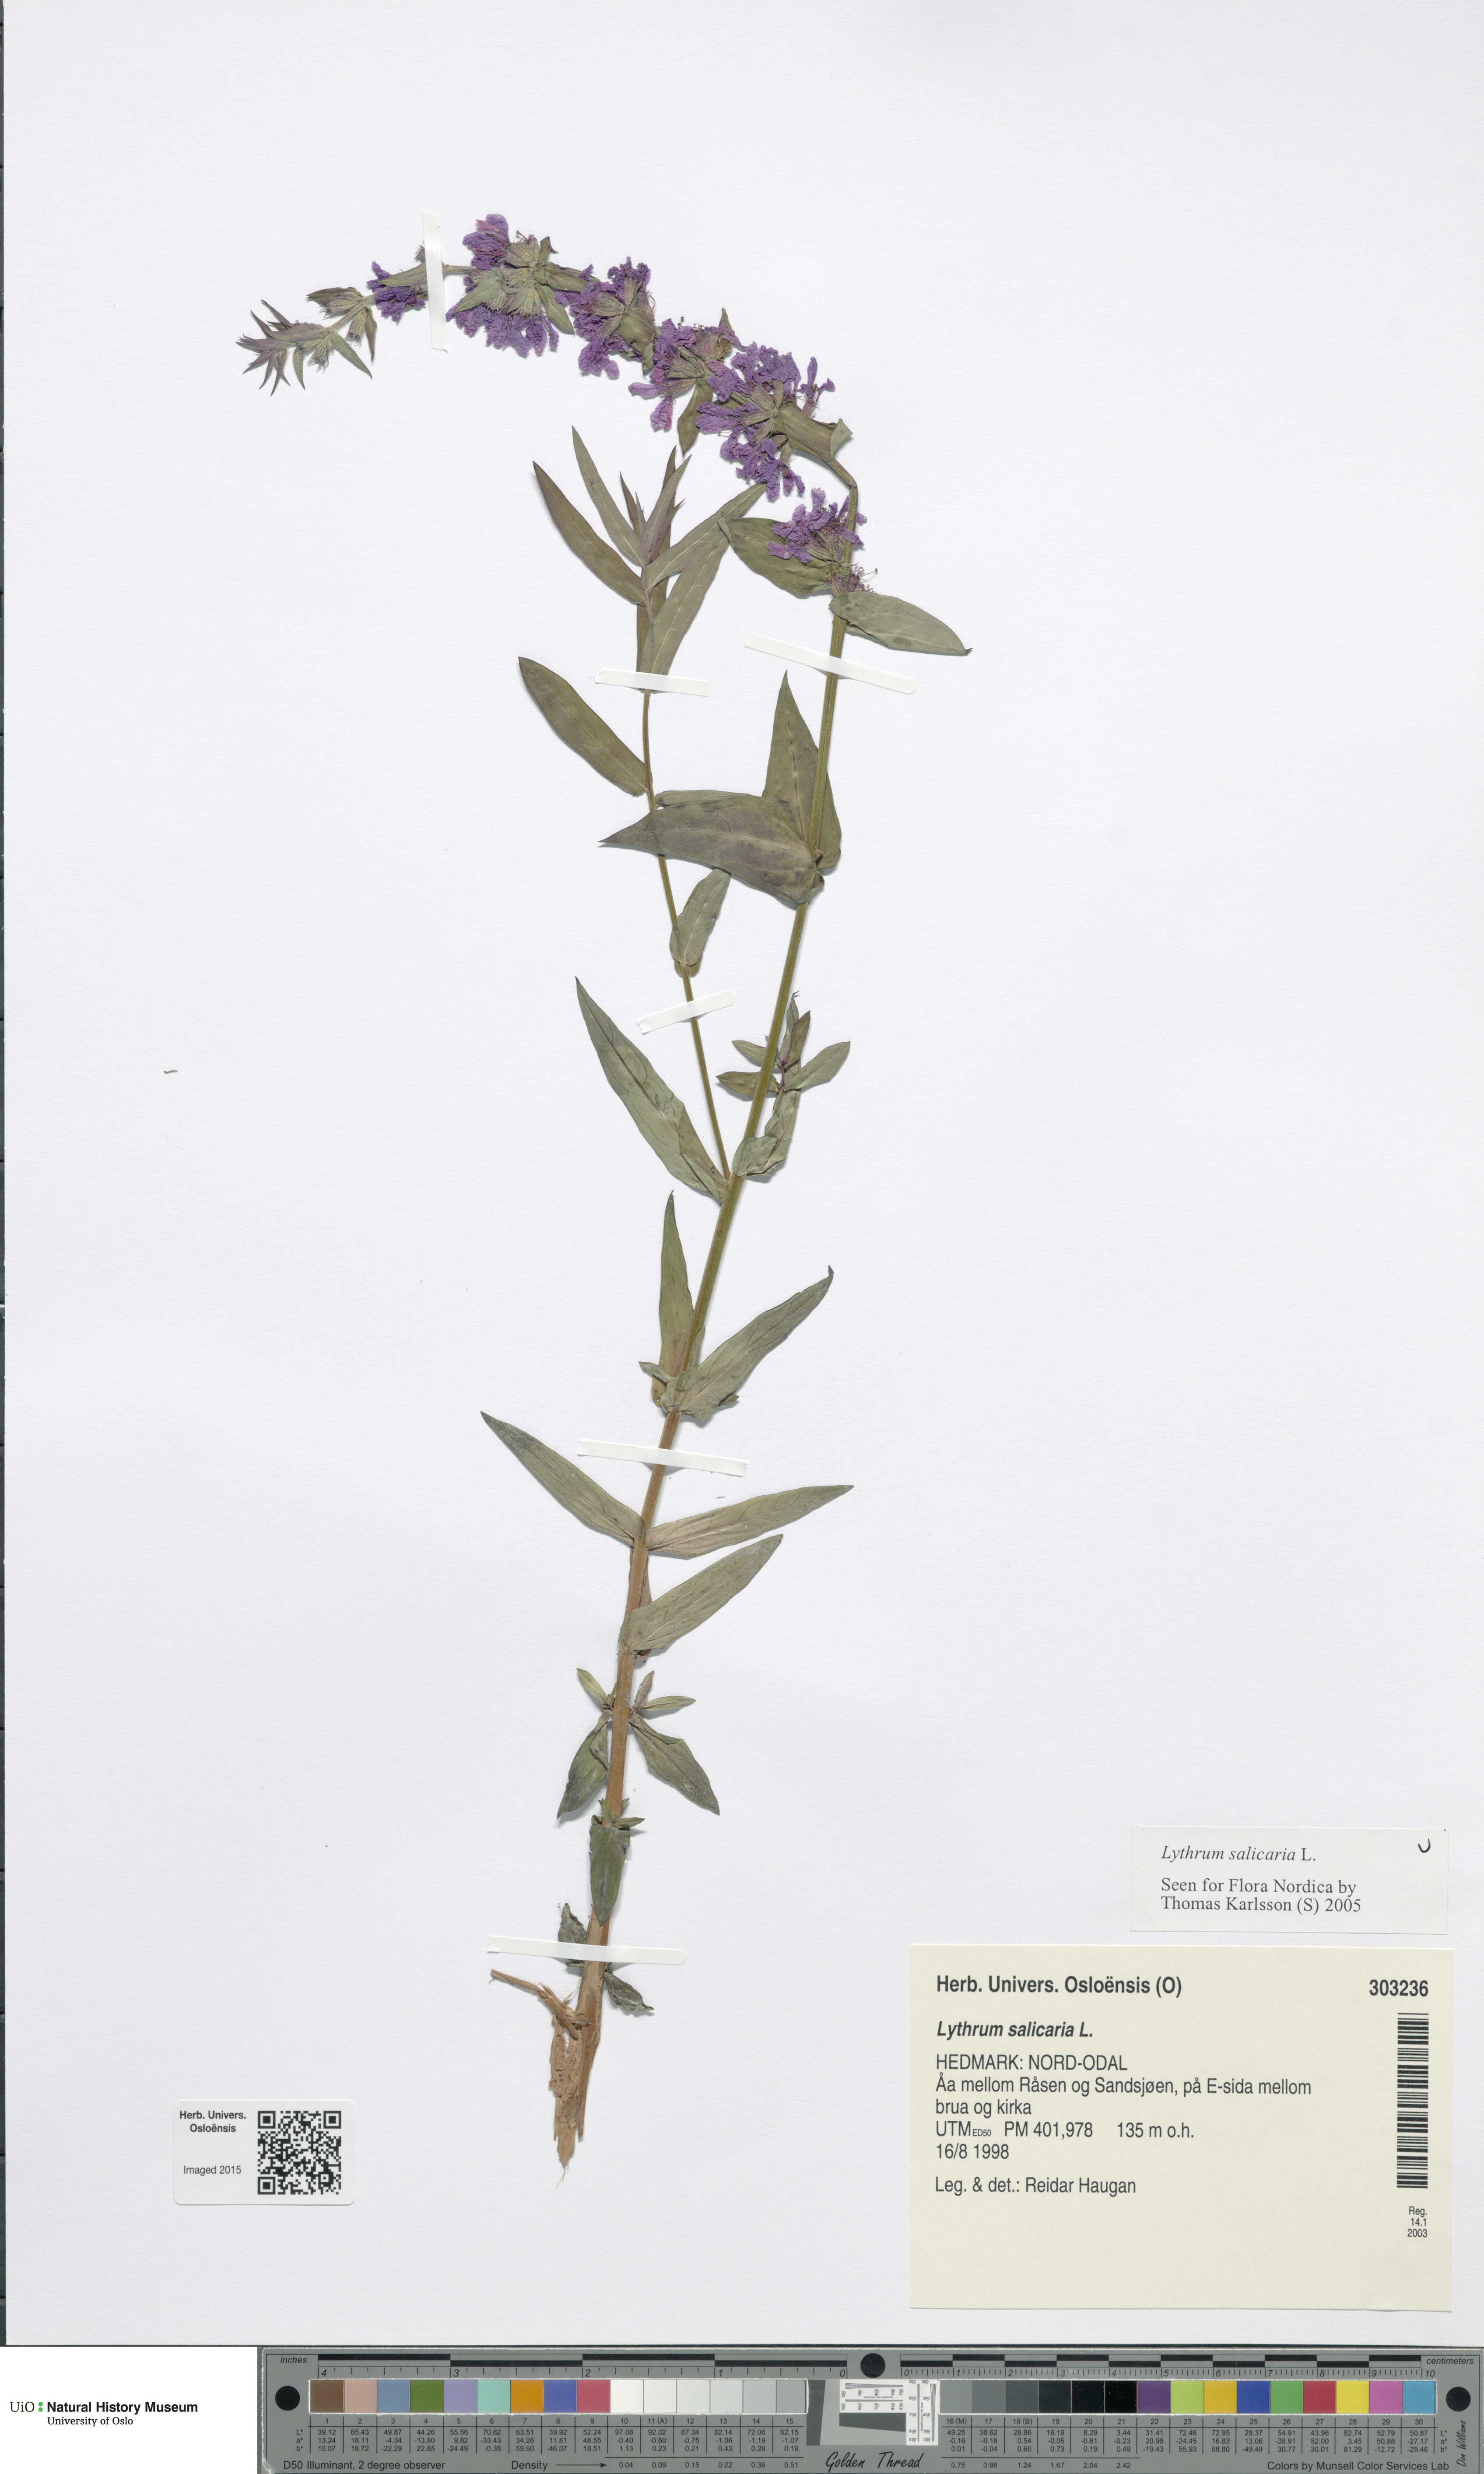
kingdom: Plantae
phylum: Tracheophyta
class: Magnoliopsida
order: Myrtales
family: Lythraceae
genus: Lythrum
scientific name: Lythrum salicaria
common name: Purple loosestrife
